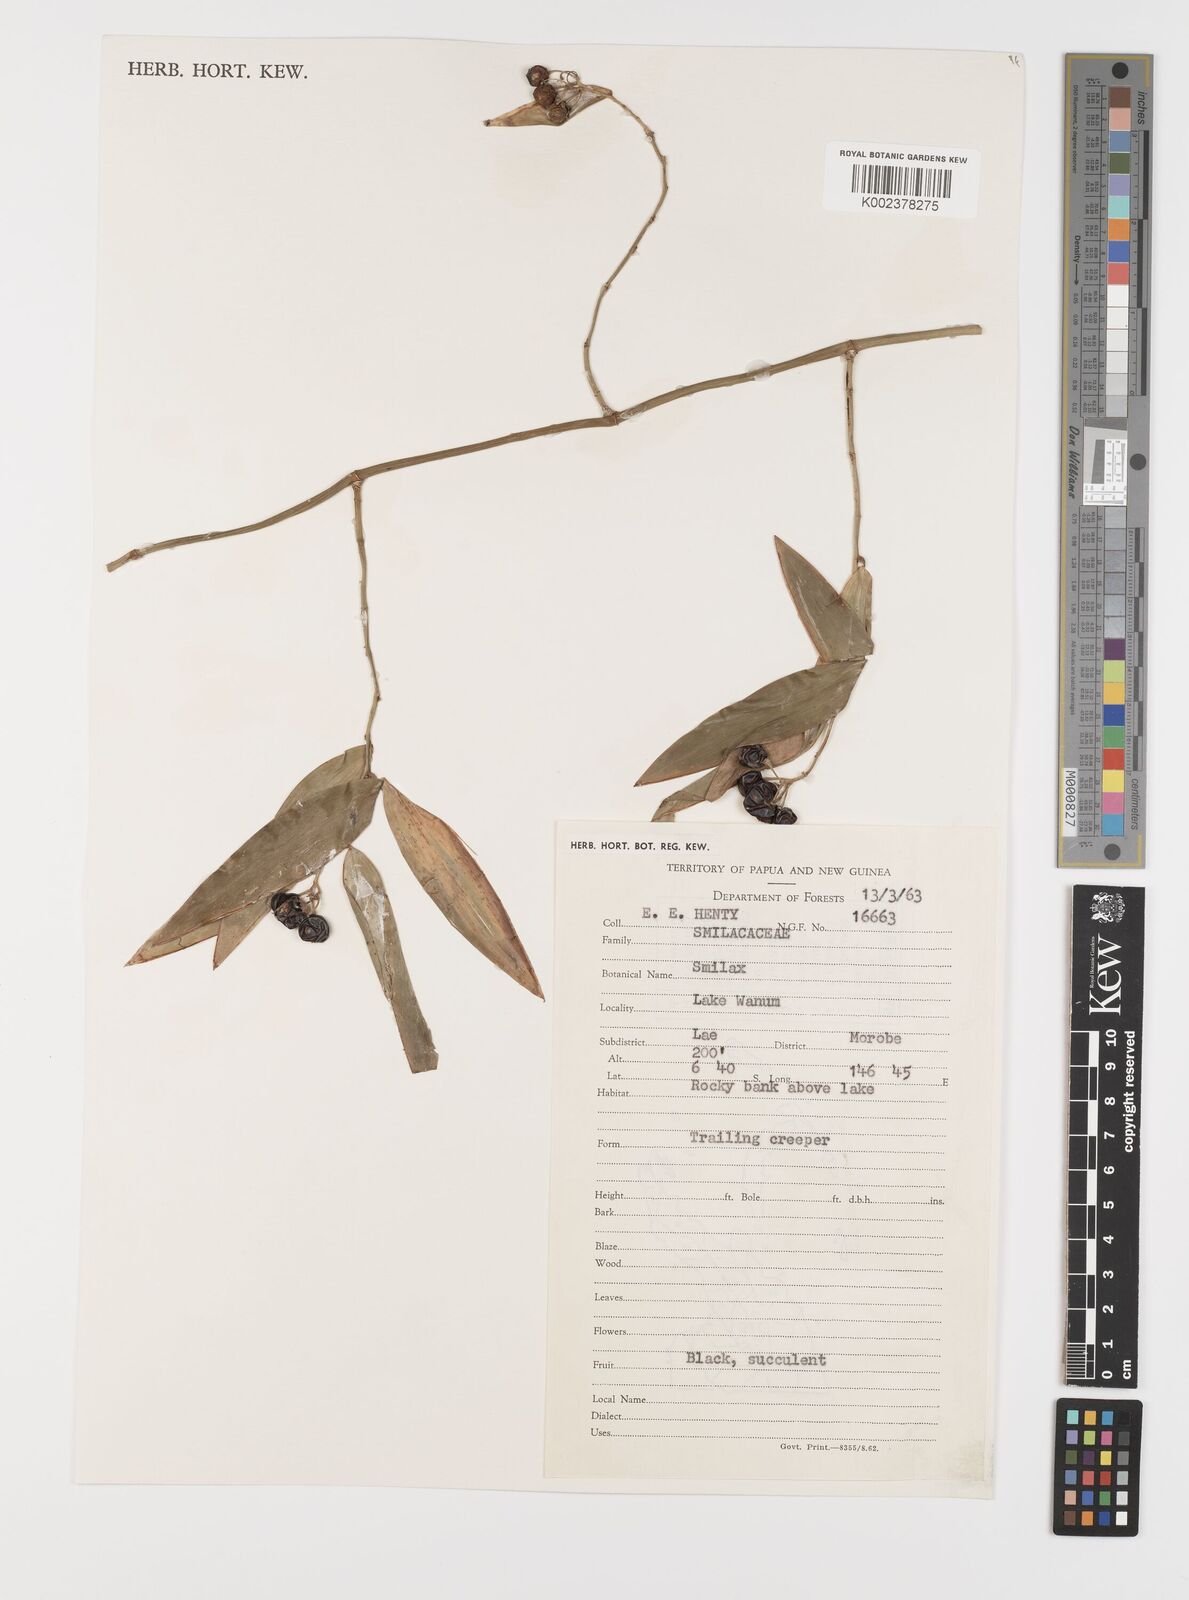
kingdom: Plantae
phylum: Tracheophyta
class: Liliopsida
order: Liliales
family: Smilacaceae
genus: Smilax
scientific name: Smilax
